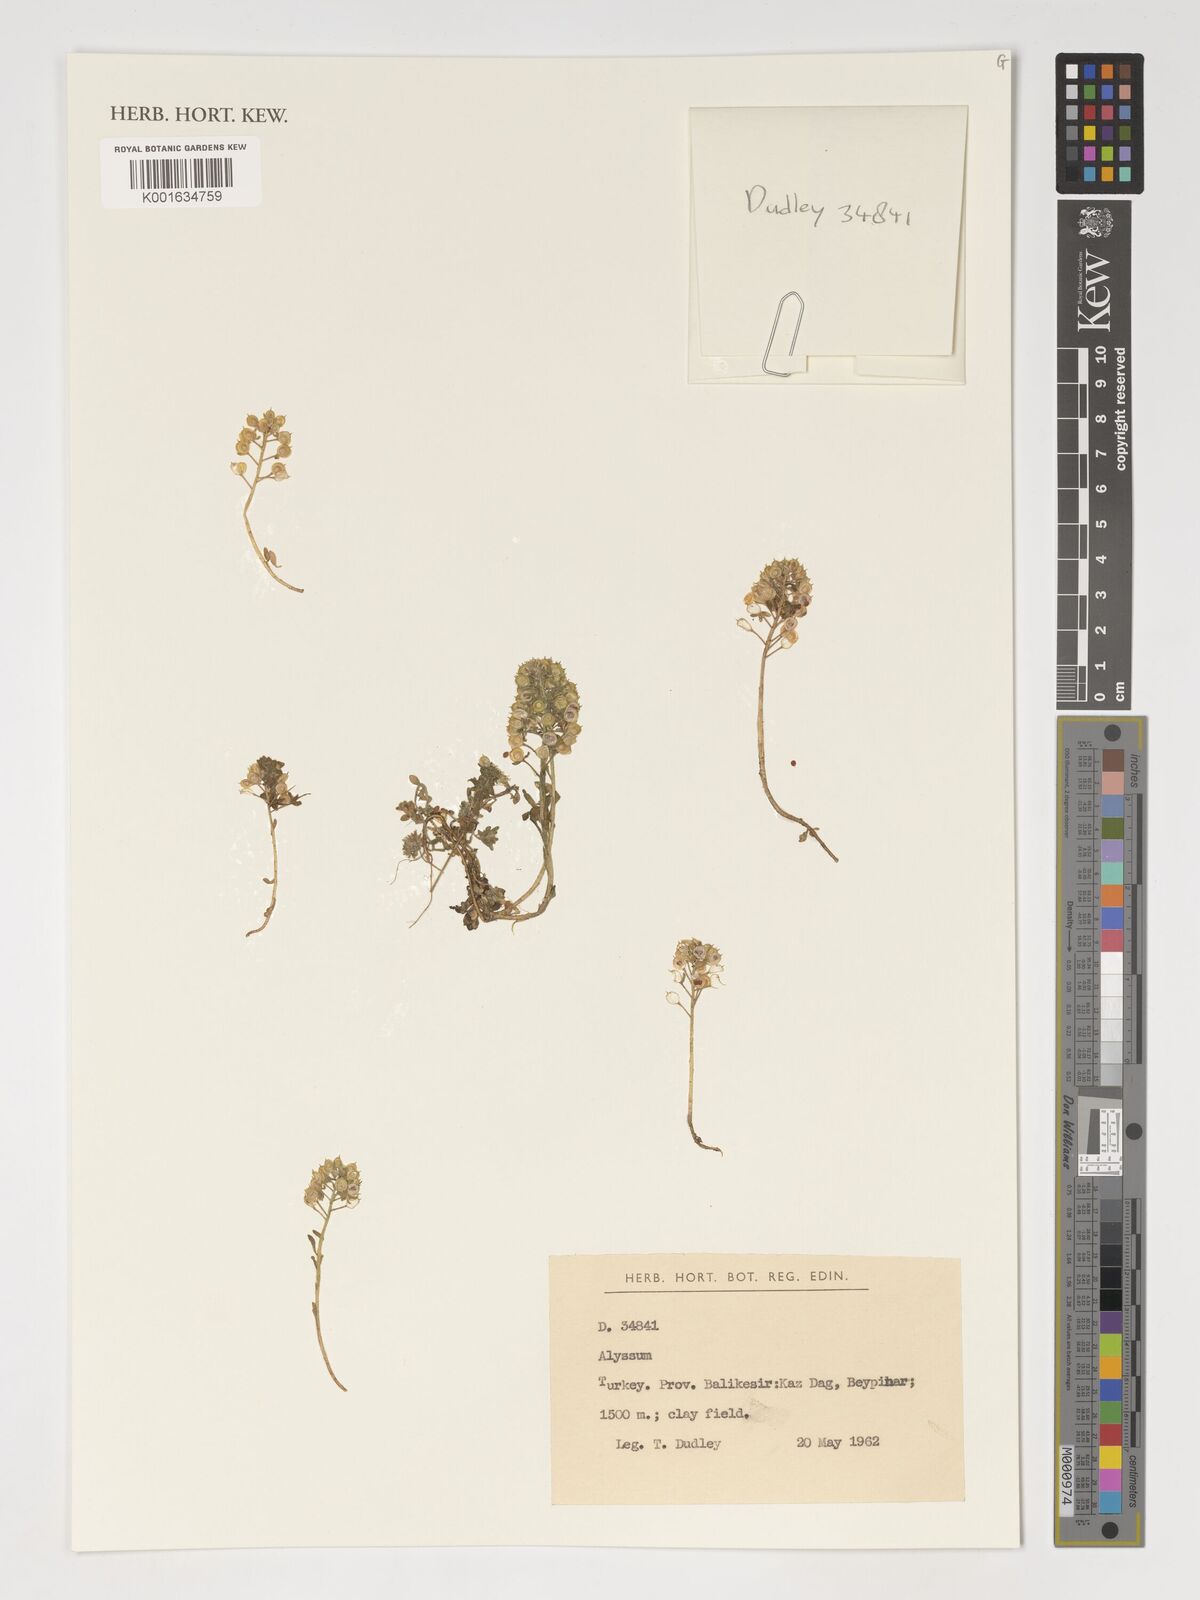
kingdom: Plantae
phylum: Tracheophyta
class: Magnoliopsida
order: Brassicales
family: Brassicaceae
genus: Alyssum
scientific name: Alyssum
